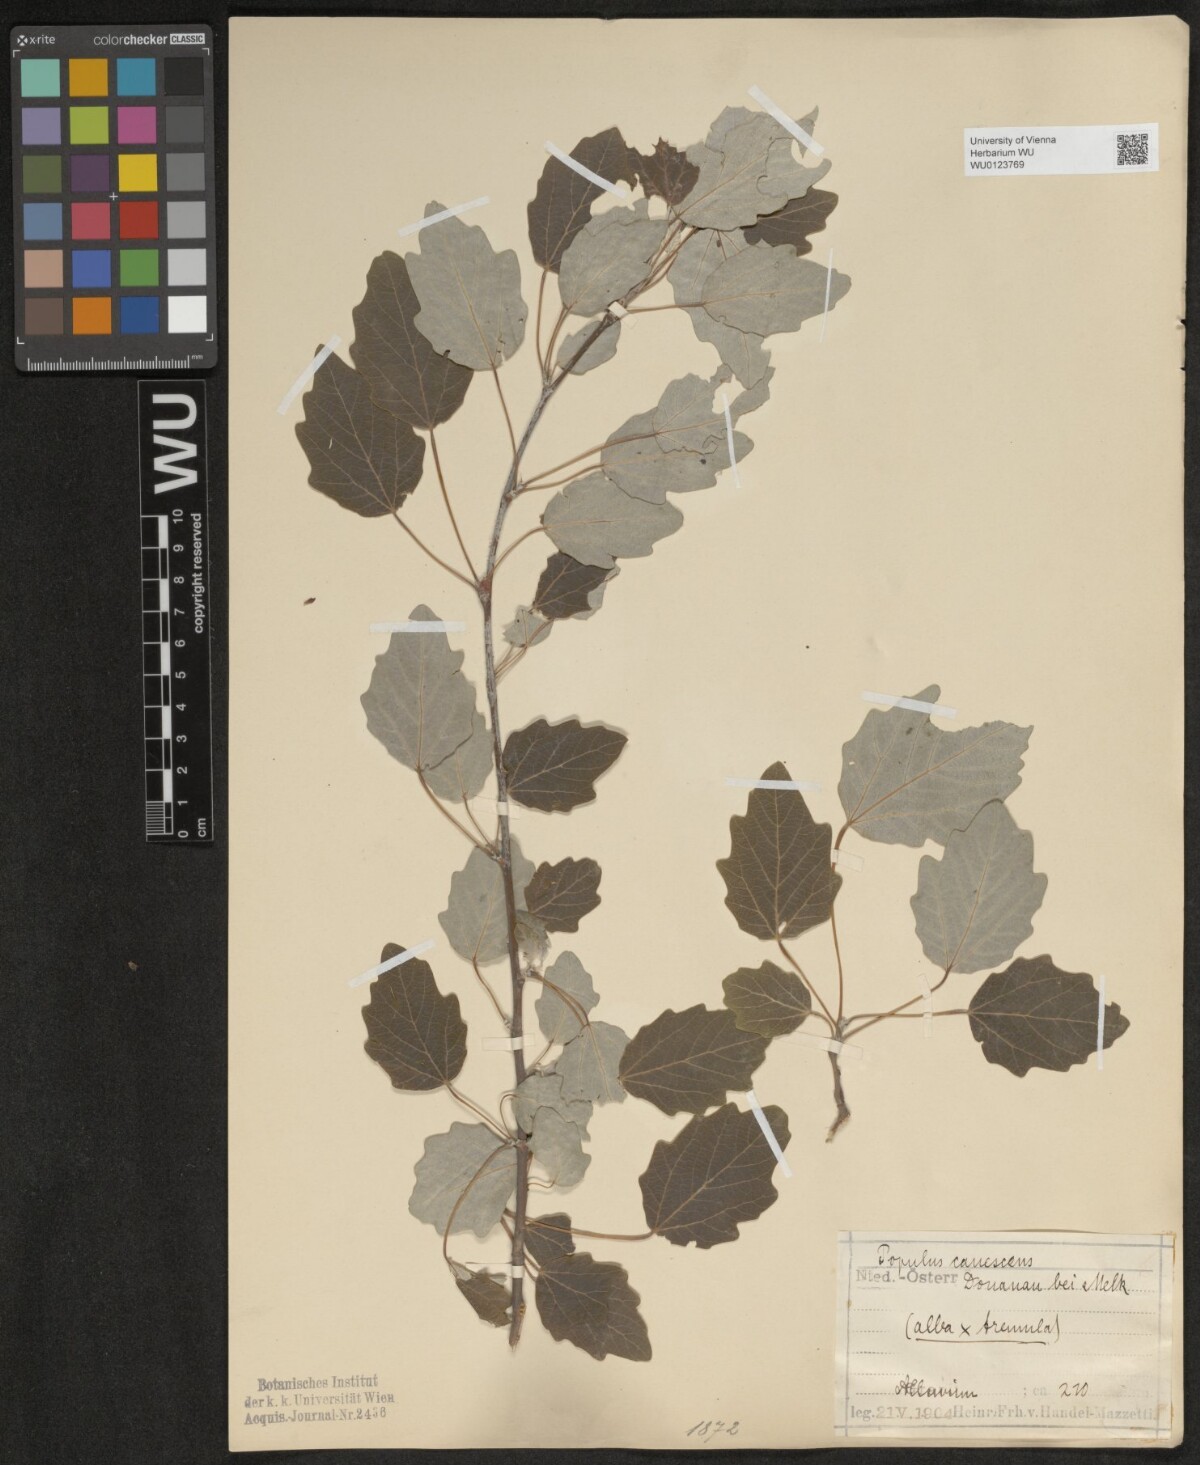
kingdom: Plantae
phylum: Tracheophyta
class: Magnoliopsida
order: Malpighiales
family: Salicaceae
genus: Populus
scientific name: Populus alba
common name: White poplar
